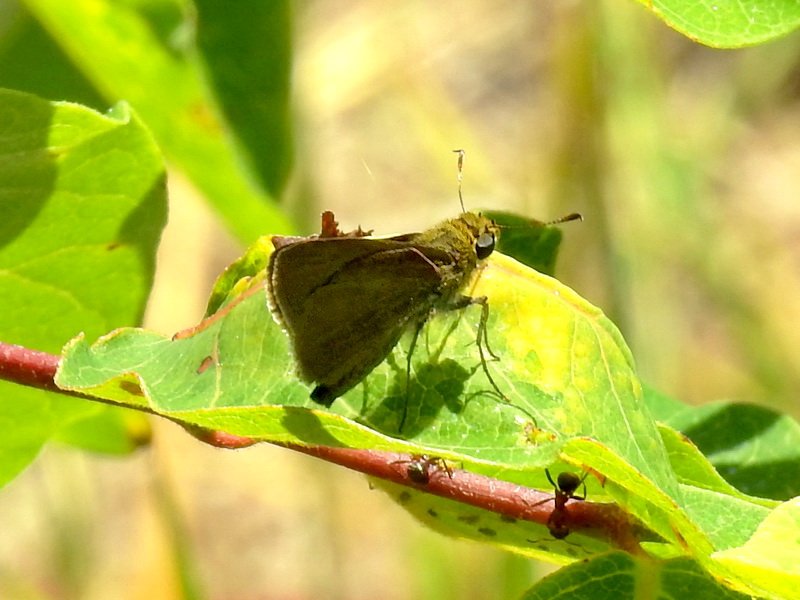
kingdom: Animalia
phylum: Arthropoda
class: Insecta
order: Lepidoptera
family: Hesperiidae
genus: Euphyes
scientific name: Euphyes vestris
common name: Dun Skipper
